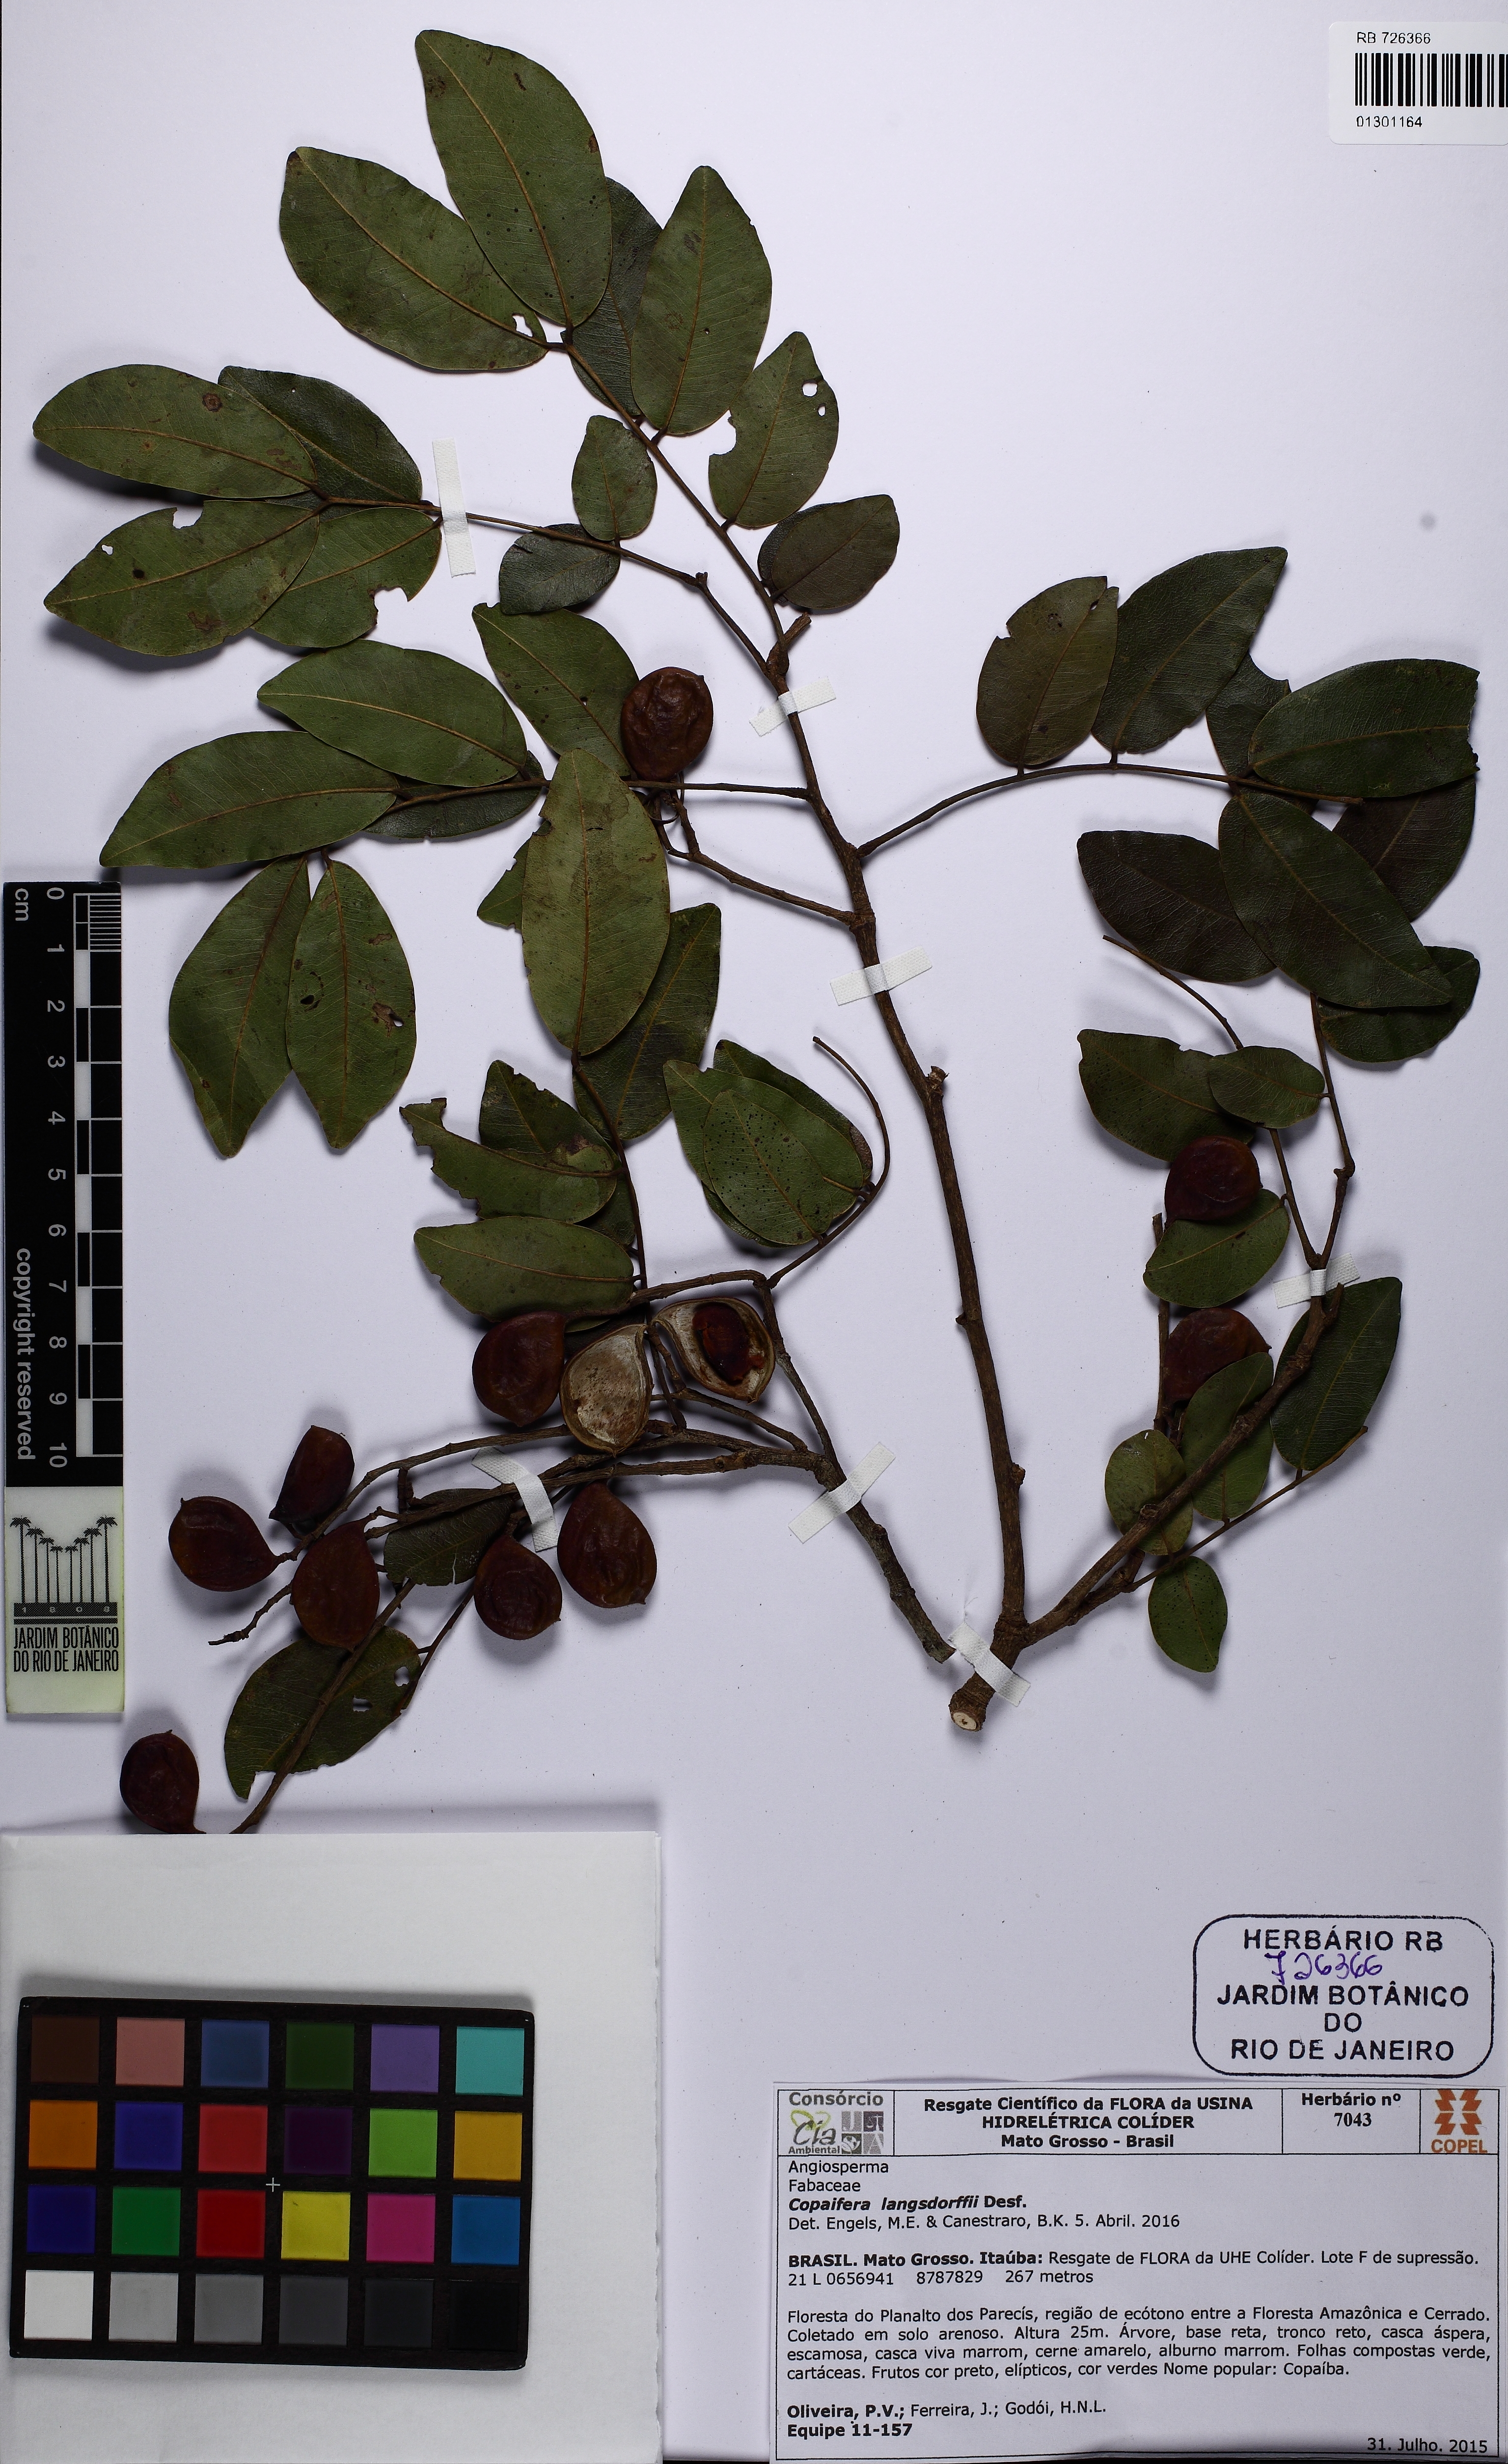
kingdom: Plantae
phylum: Tracheophyta
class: Magnoliopsida
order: Fabales
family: Fabaceae
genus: Copaifera
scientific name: Copaifera langsdorffii
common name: Brazilian diesel tree
